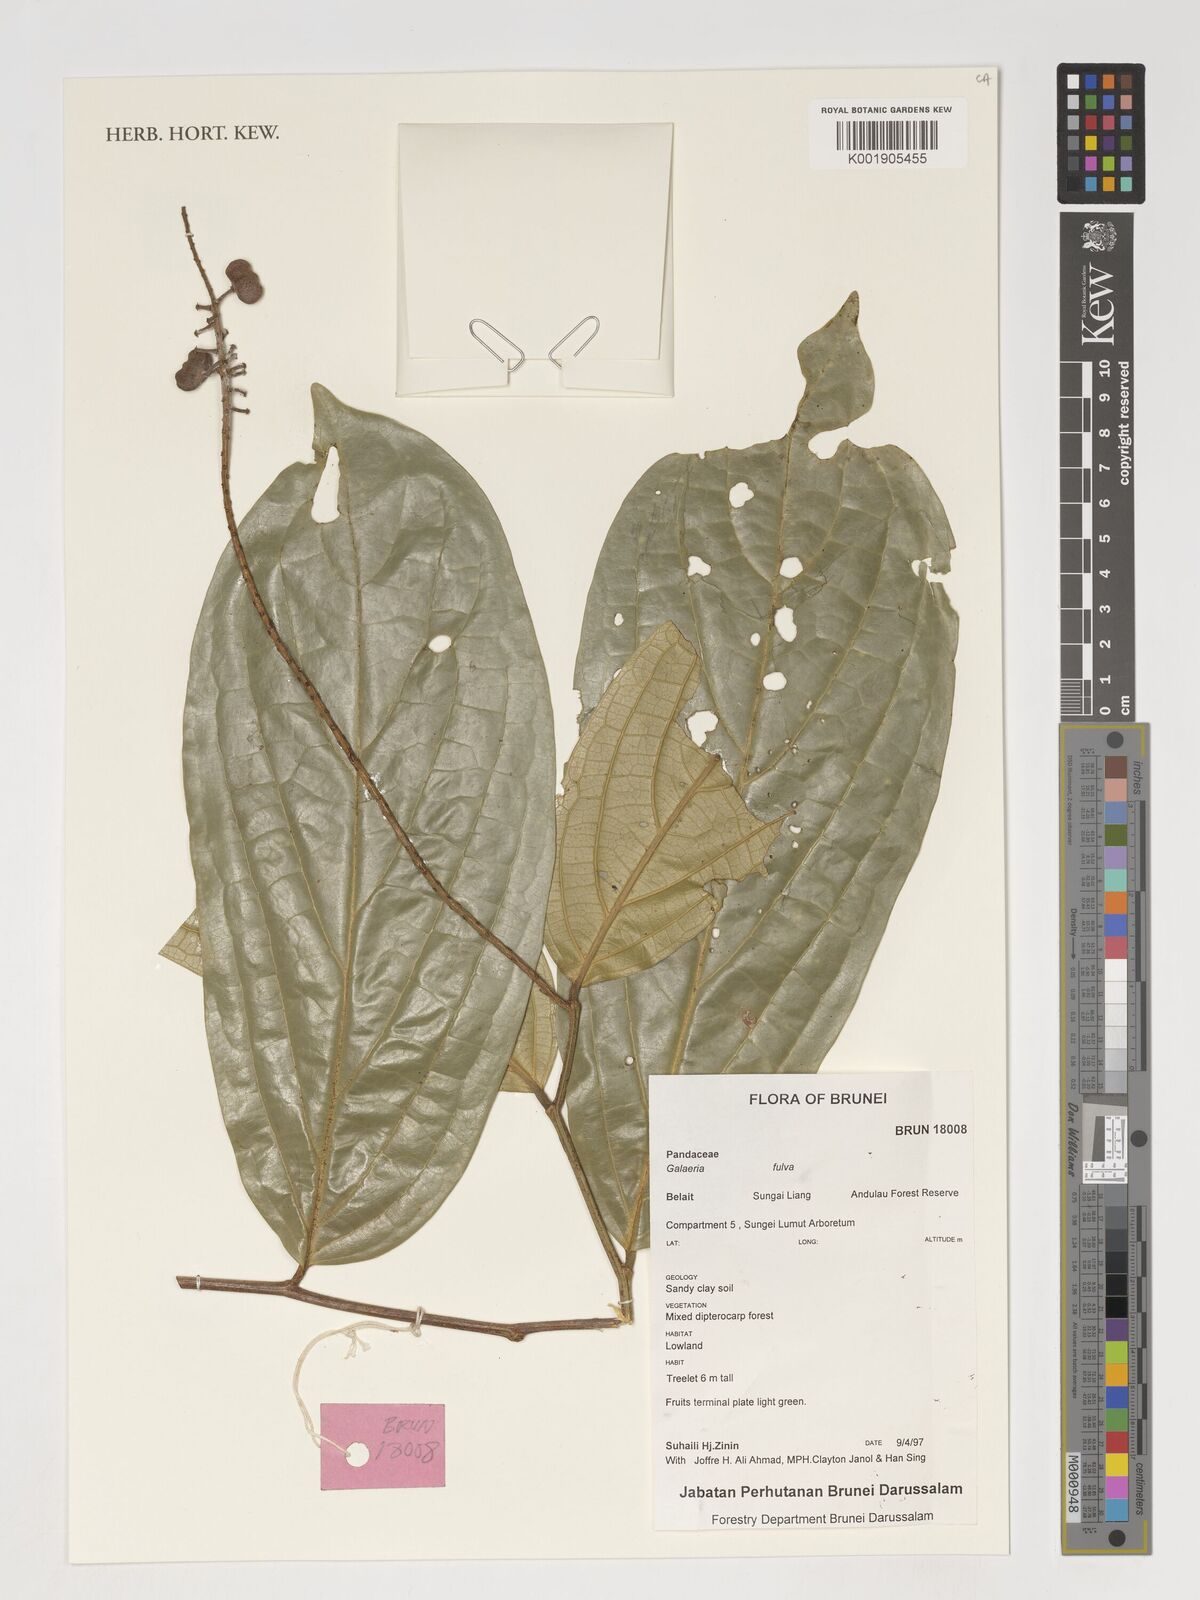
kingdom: Plantae
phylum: Tracheophyta
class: Magnoliopsida
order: Malpighiales
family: Pandaceae
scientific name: Pandaceae
